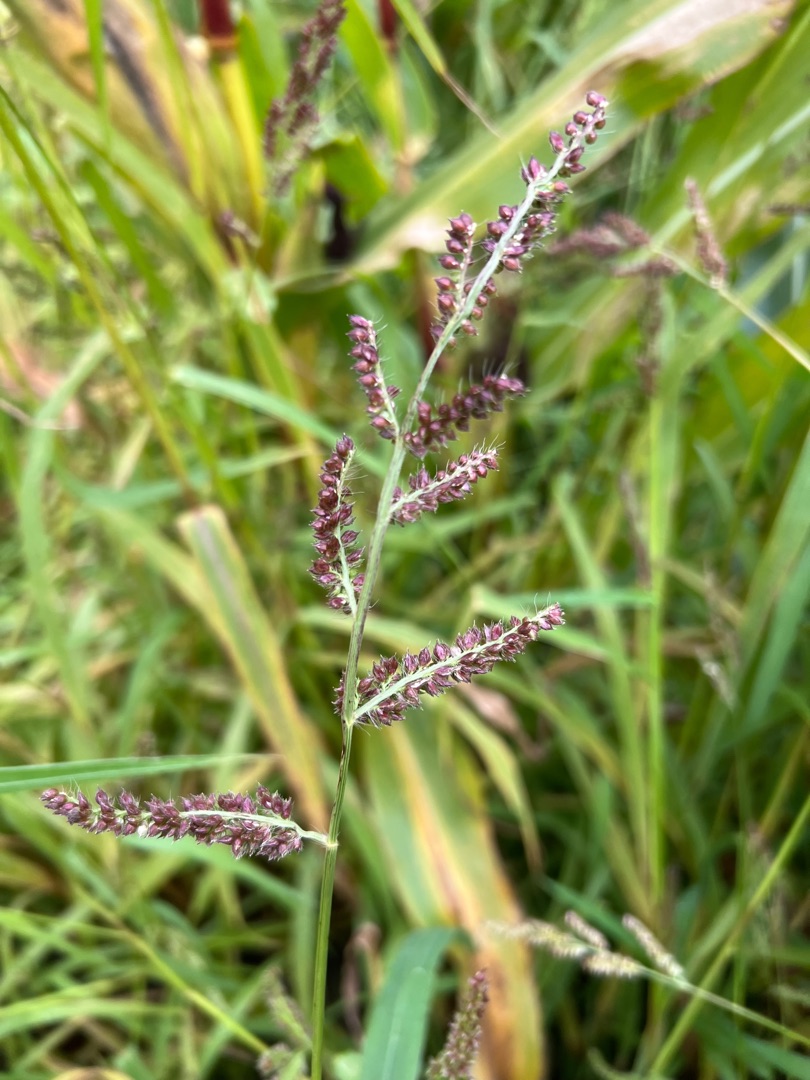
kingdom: Plantae
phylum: Tracheophyta
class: Liliopsida
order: Poales
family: Poaceae
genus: Echinochloa
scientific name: Echinochloa crus-galli
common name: Almindelig hanespore
